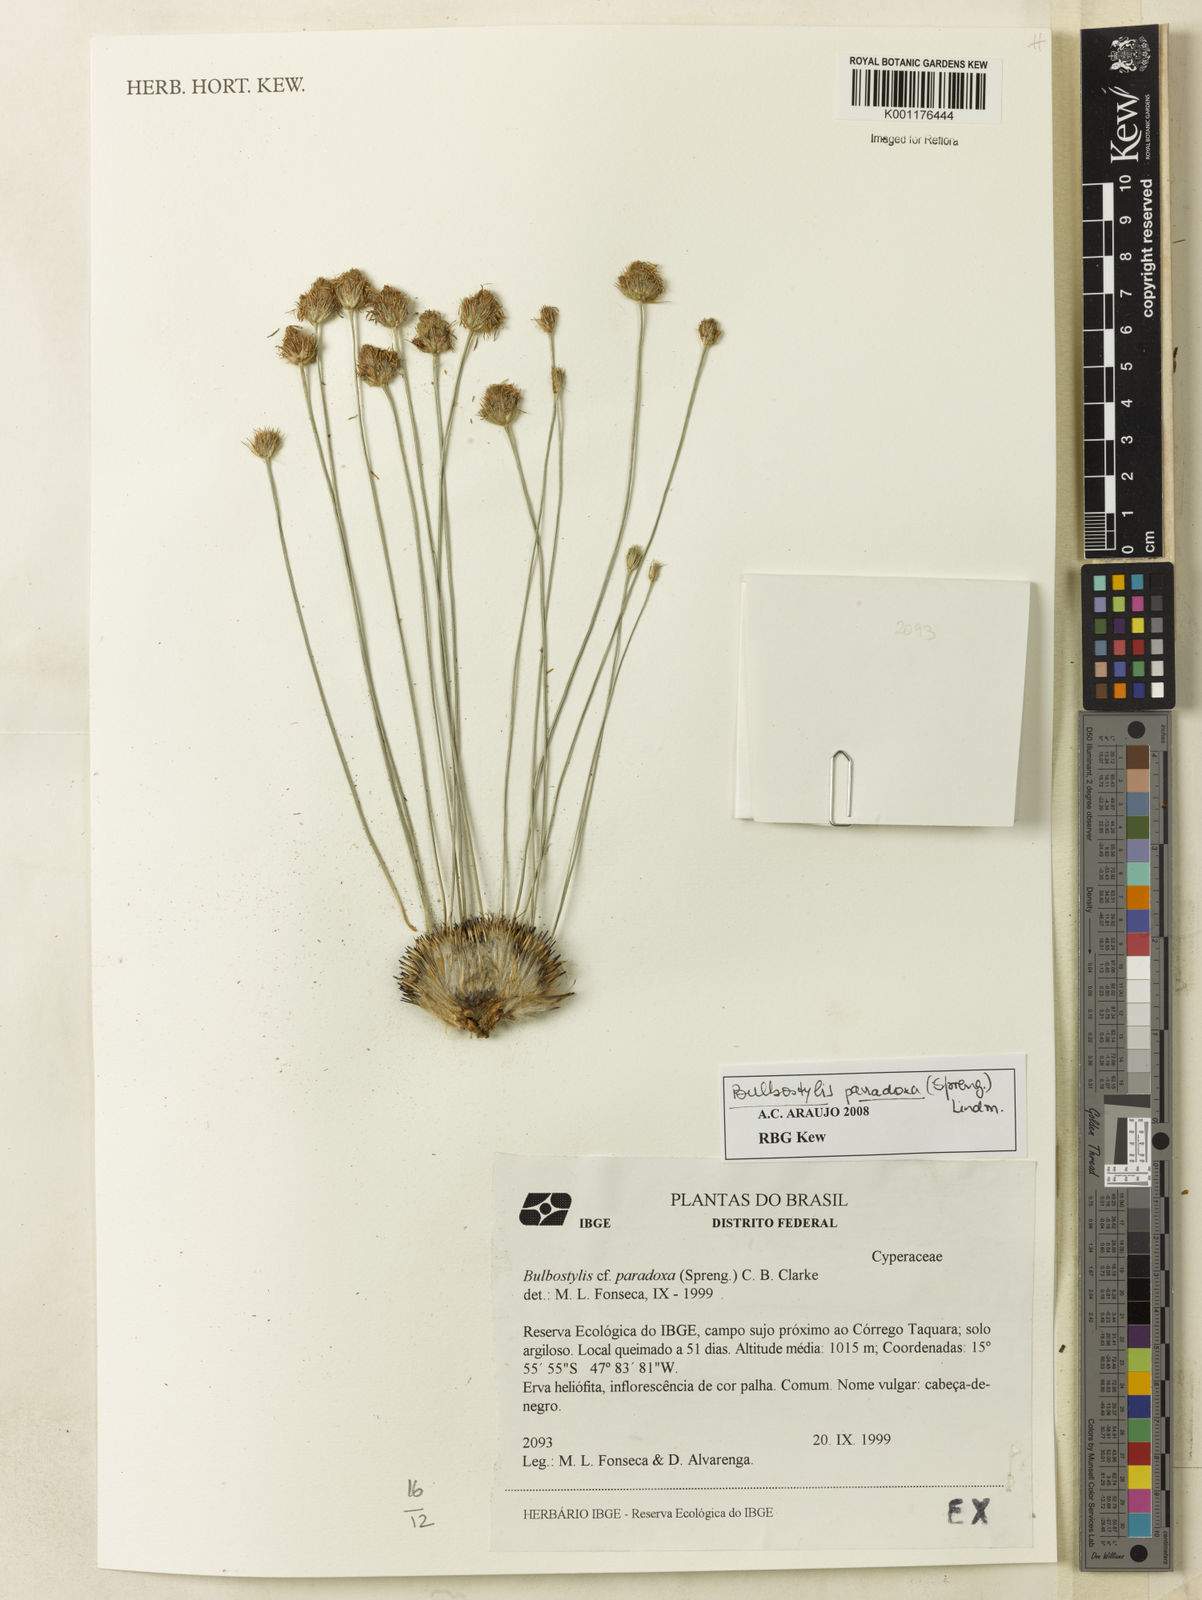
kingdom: Plantae
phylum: Tracheophyta
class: Liliopsida
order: Poales
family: Cyperaceae
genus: Bulbostylis
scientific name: Bulbostylis paradoxa
